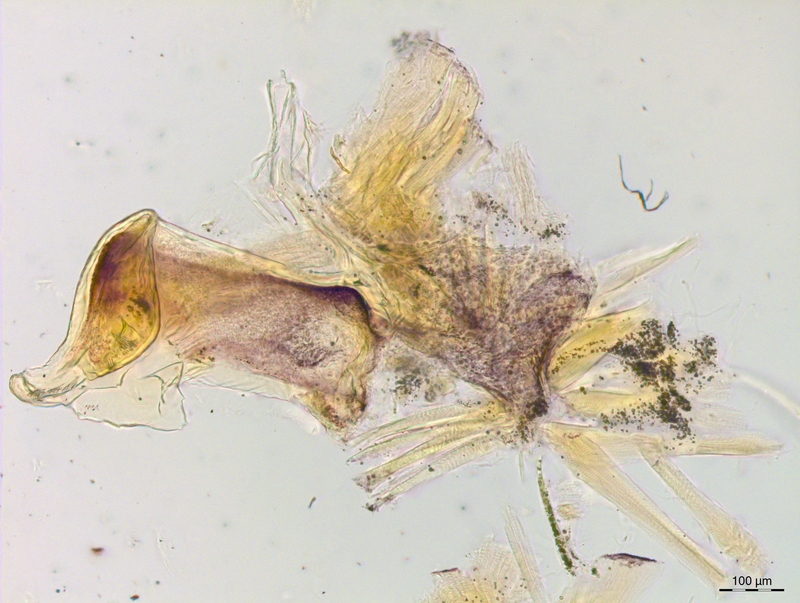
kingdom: Animalia
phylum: Arthropoda
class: Diplopoda
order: Chordeumatida
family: Craspedosomatidae
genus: Craspedosoma
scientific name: Craspedosoma rawlinsii
